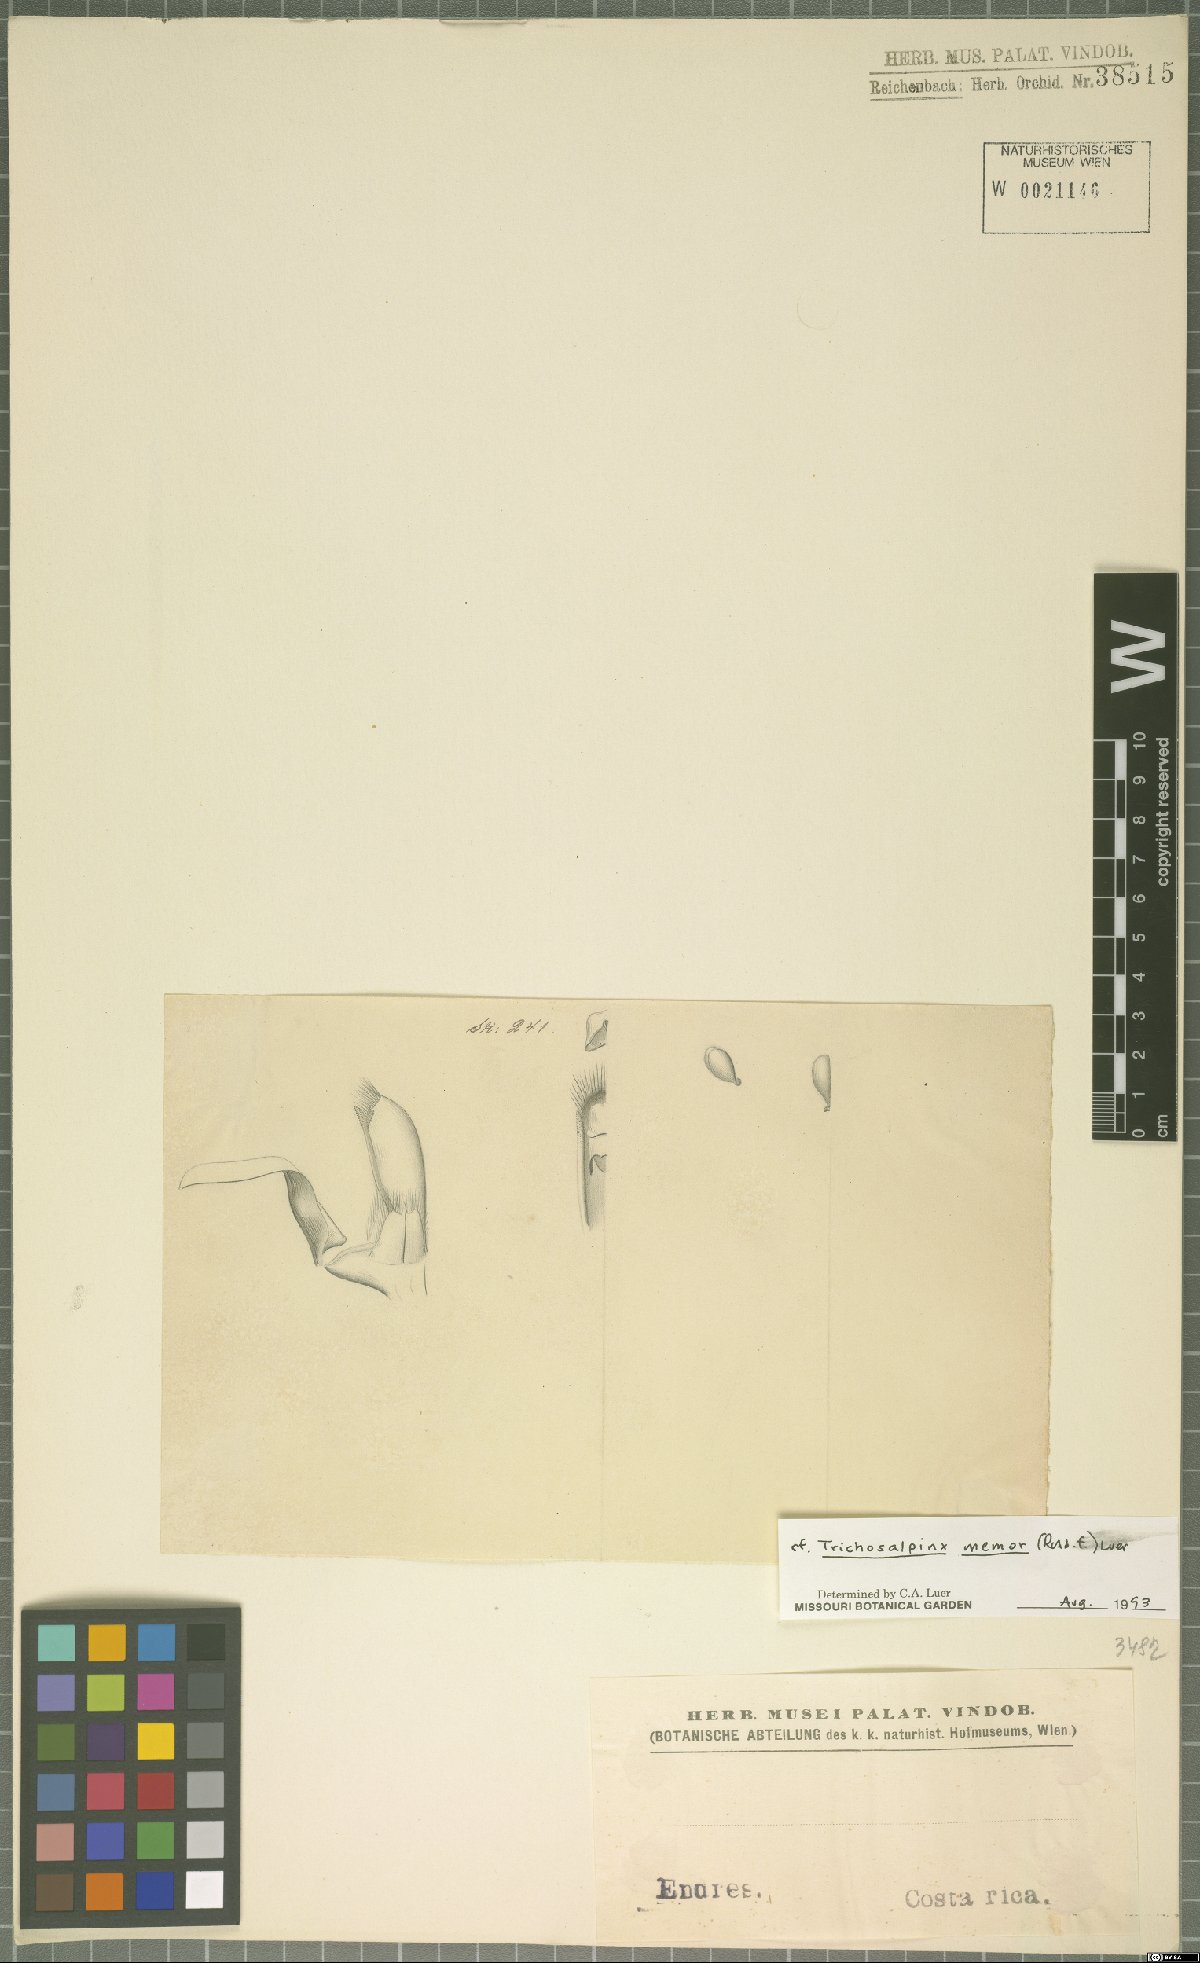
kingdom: Plantae
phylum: Tracheophyta
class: Liliopsida
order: Asparagales
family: Orchidaceae
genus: Trichosalpinx
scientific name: Trichosalpinx memor
